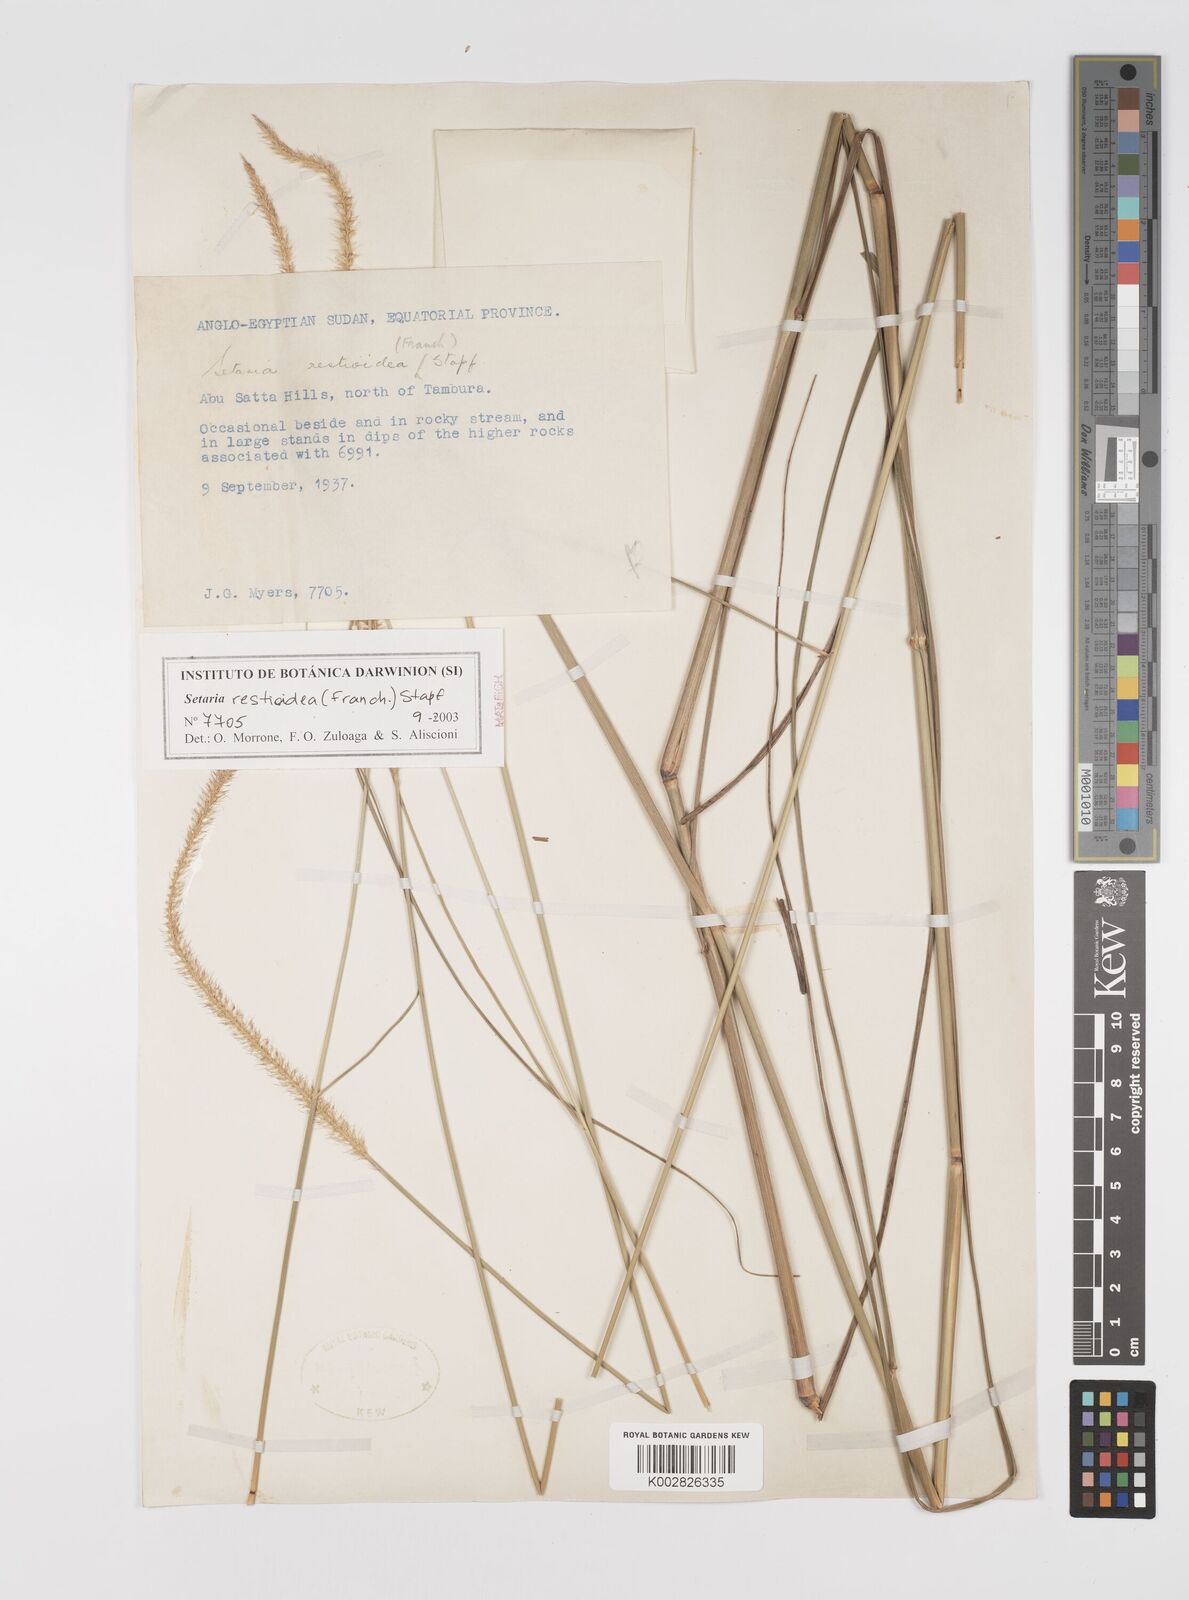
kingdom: Plantae
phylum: Tracheophyta
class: Liliopsida
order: Poales
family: Poaceae
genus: Setaria
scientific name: Setaria restioidea
